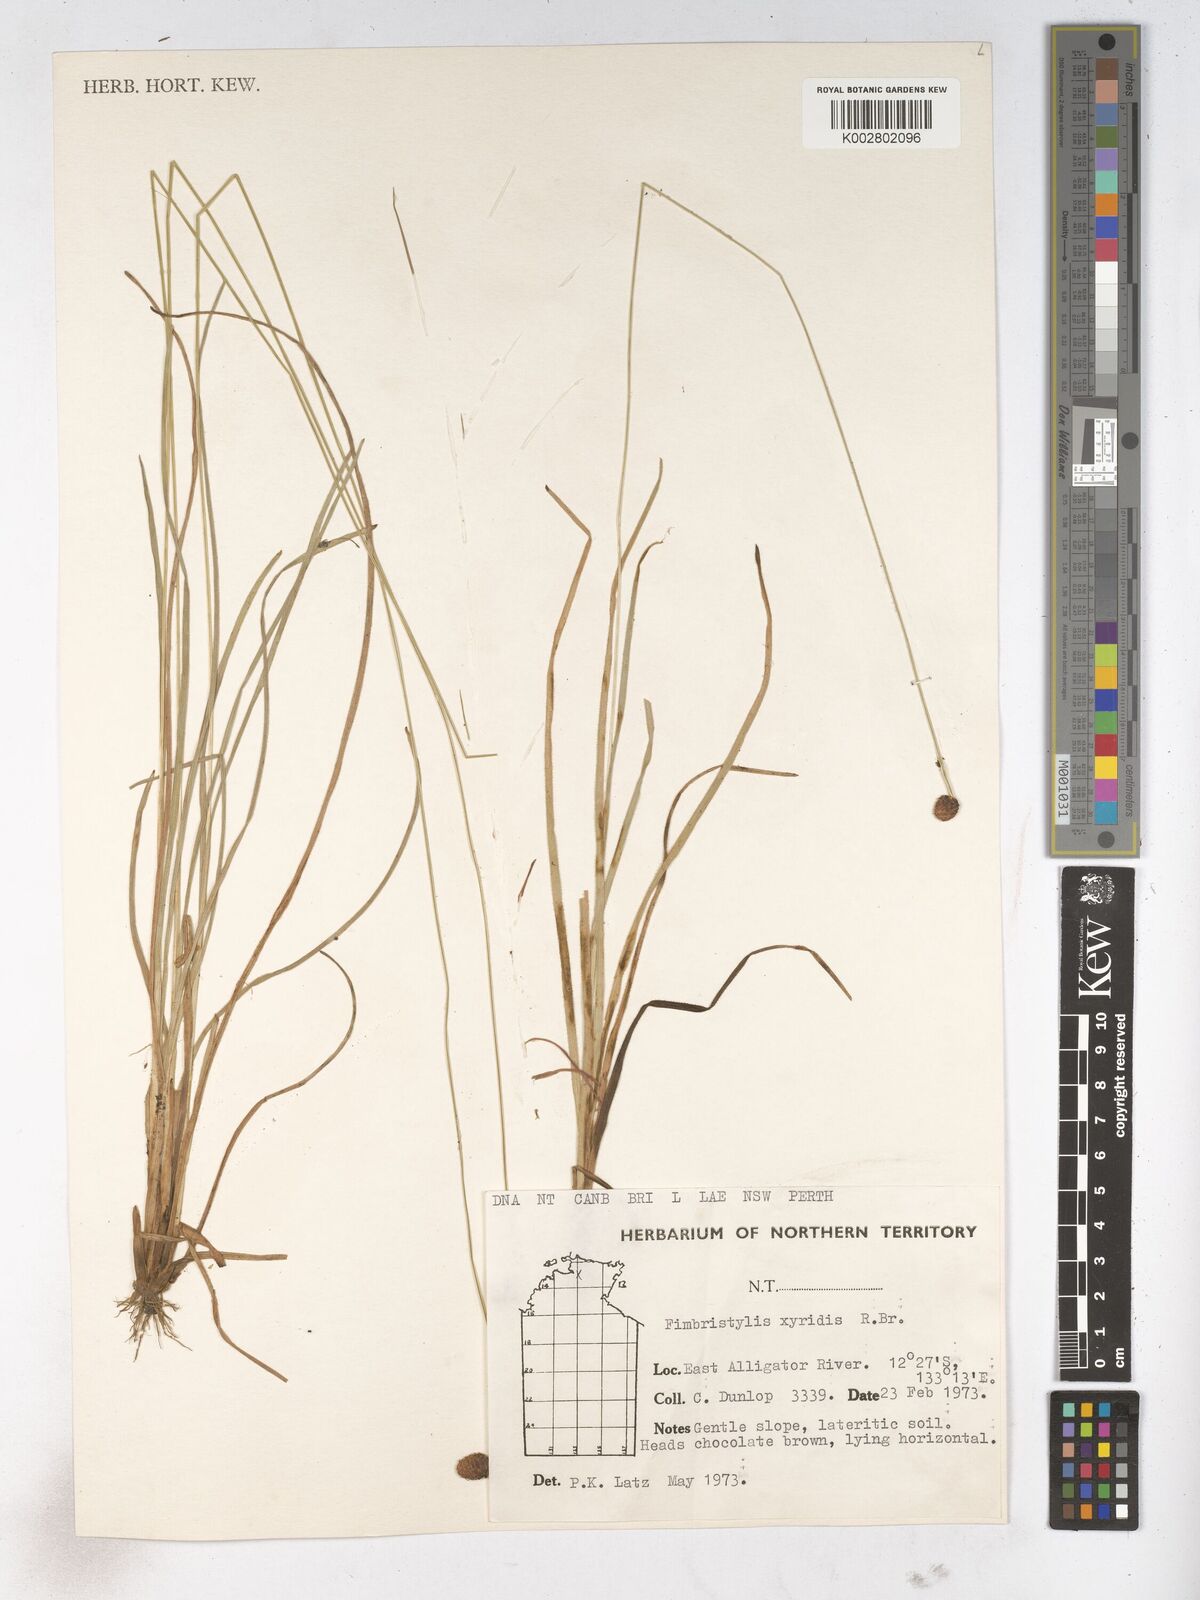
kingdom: Plantae
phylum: Tracheophyta
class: Liliopsida
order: Poales
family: Cyperaceae
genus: Fimbristylis
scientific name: Fimbristylis xyridis
